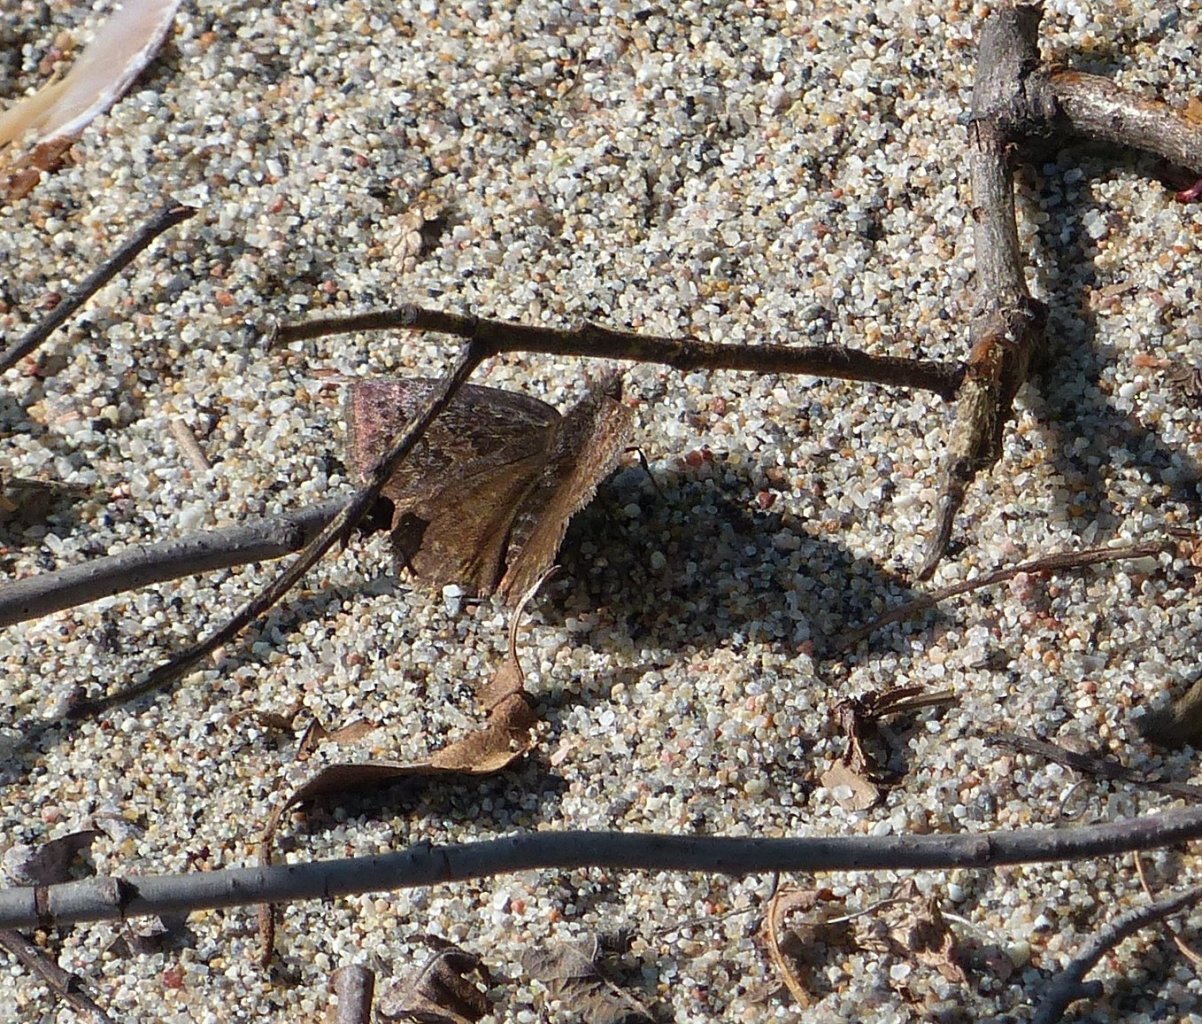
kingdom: Animalia
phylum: Arthropoda
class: Insecta
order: Lepidoptera
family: Hesperiidae
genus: Erynnis
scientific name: Erynnis
